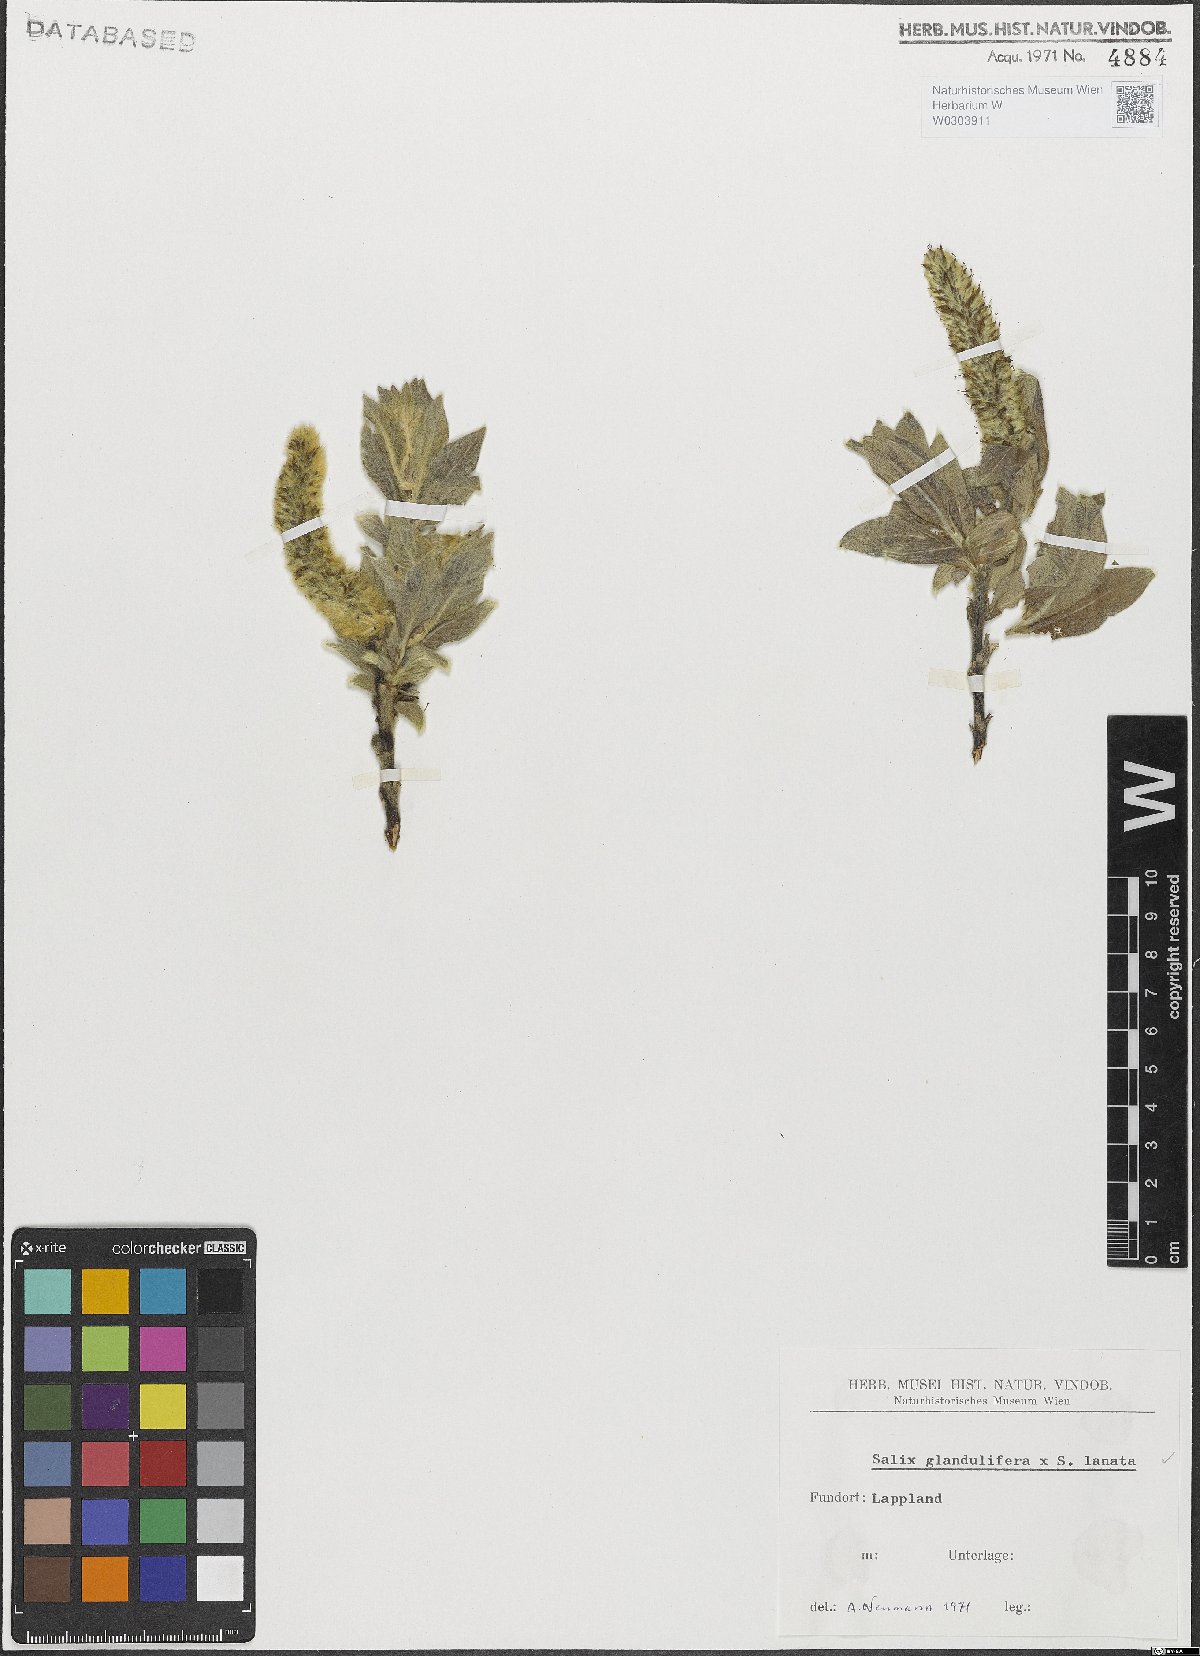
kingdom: Plantae
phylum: Tracheophyta
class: Magnoliopsida
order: Malpighiales
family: Salicaceae
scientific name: Salicaceae
